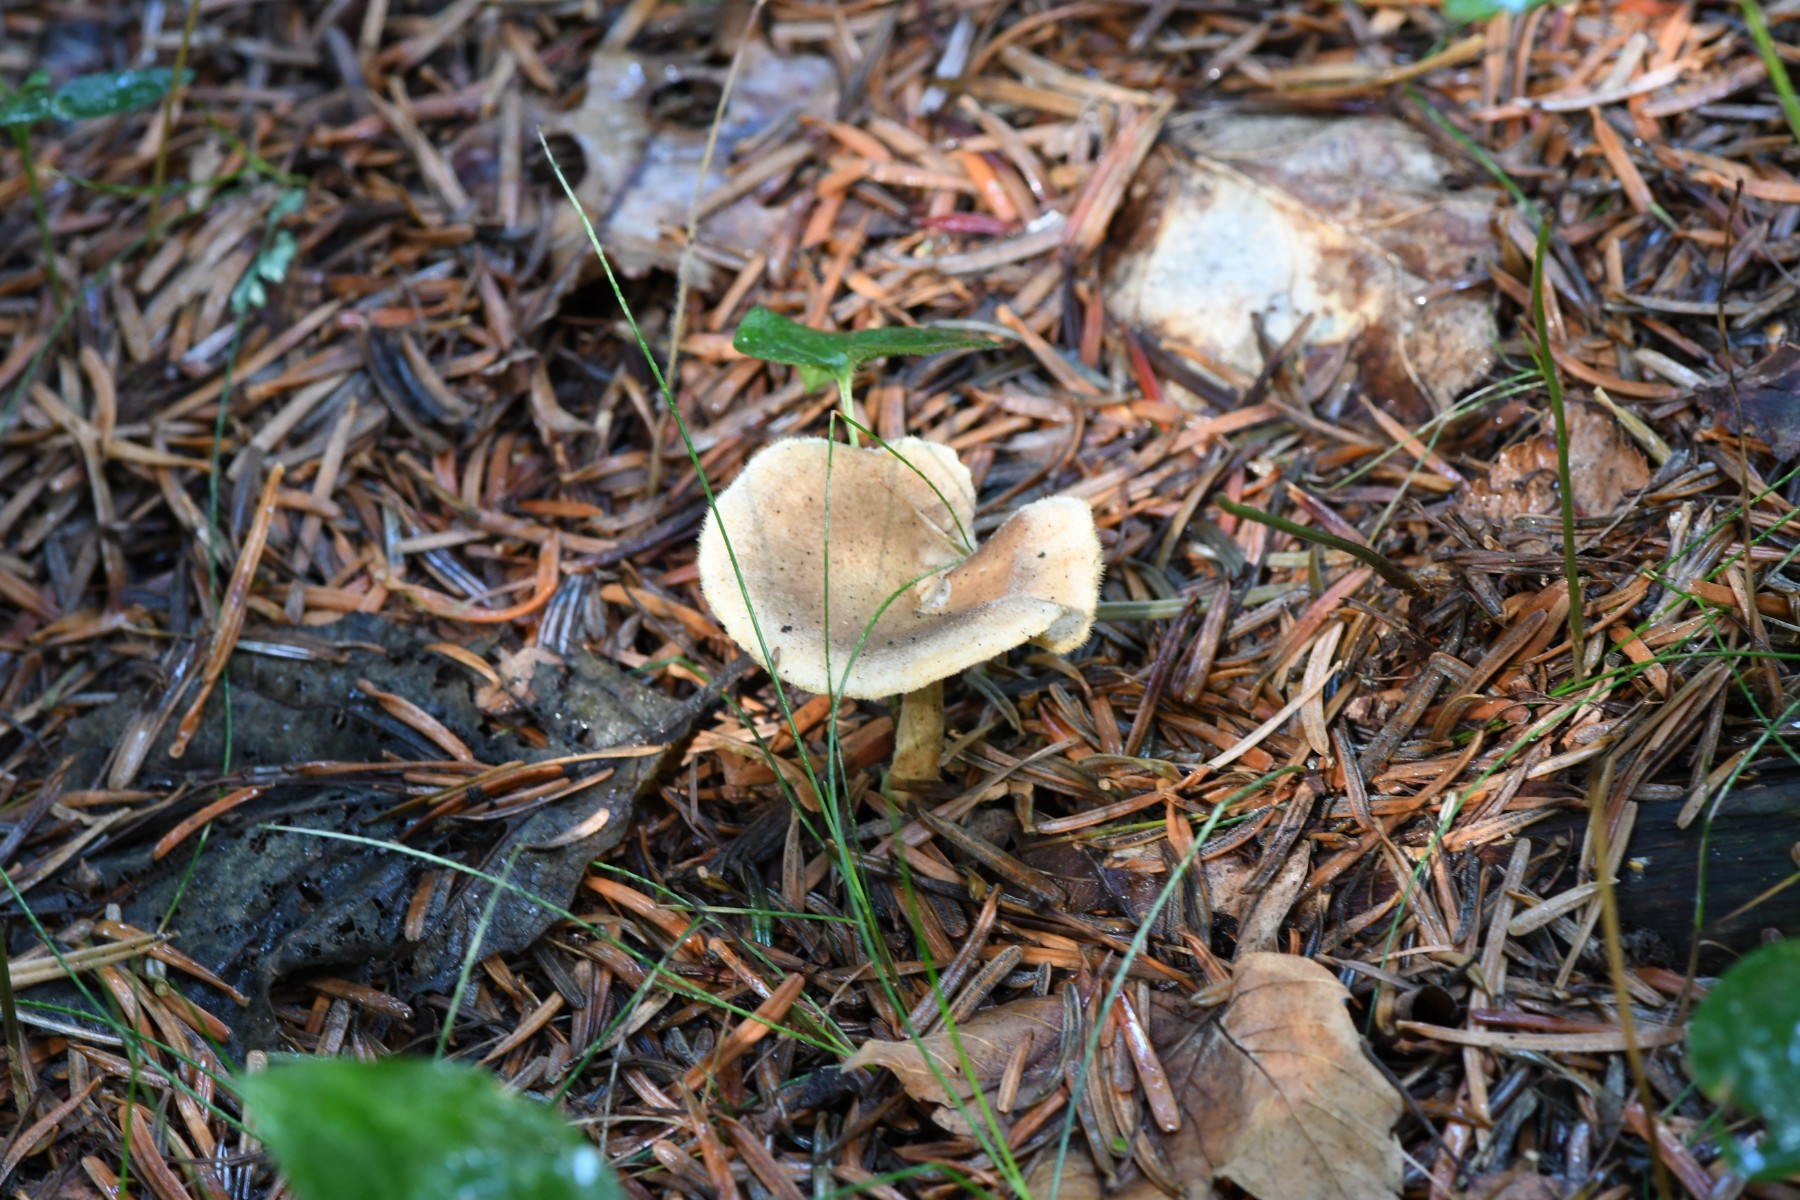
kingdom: Fungi
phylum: Basidiomycota
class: Agaricomycetes
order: Polyporales
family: Polyporaceae
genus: Lentinus
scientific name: Lentinus substrictus
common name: forårs-stilkporesvamp
